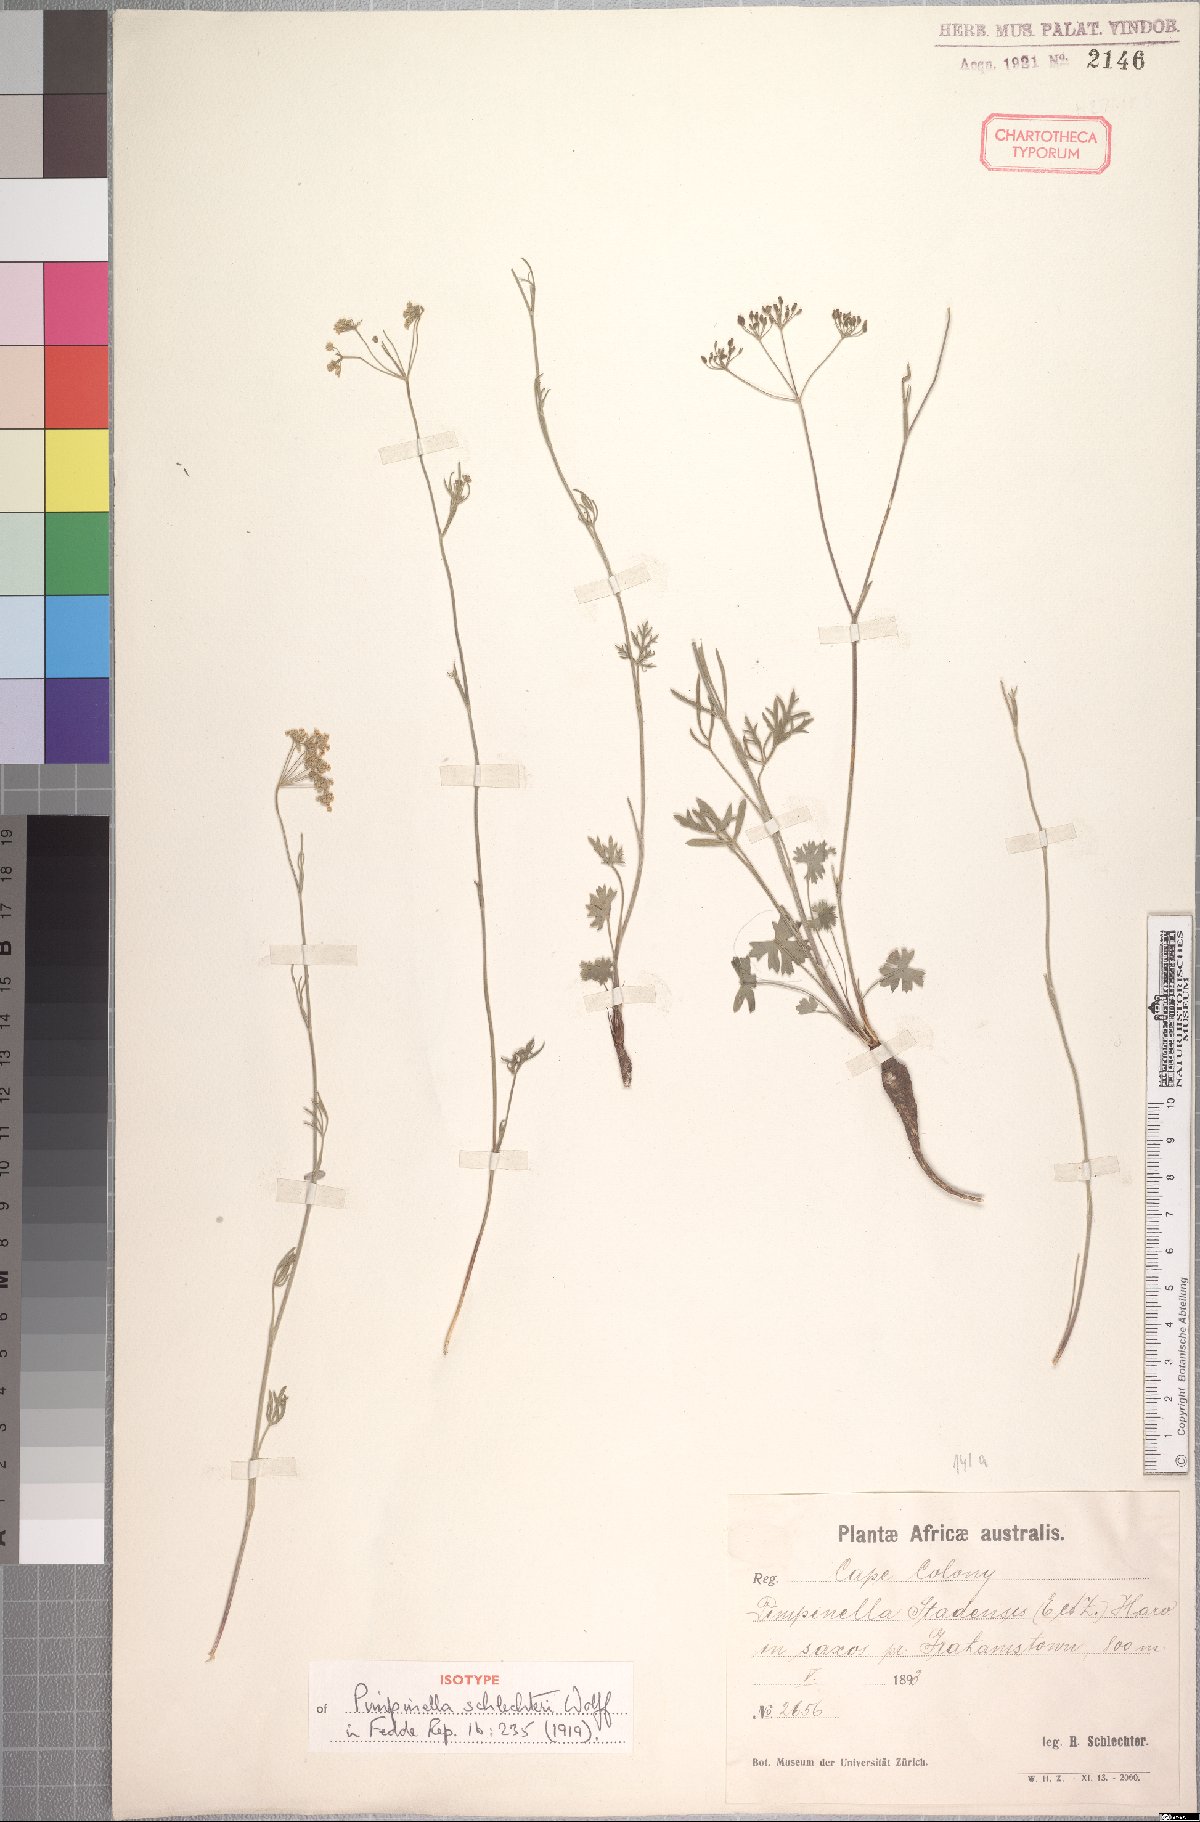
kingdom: Plantae
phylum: Tracheophyta
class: Magnoliopsida
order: Apiales
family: Apiaceae
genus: Pimpinella
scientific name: Pimpinella caffra
